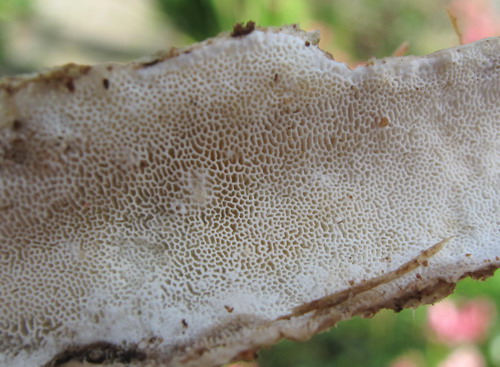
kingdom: Fungi
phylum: Basidiomycota
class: Agaricomycetes
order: Polyporales
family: Gelatoporiaceae
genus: Cinereomyces
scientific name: Cinereomyces lindbladii
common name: almindelig gråporesvamp
